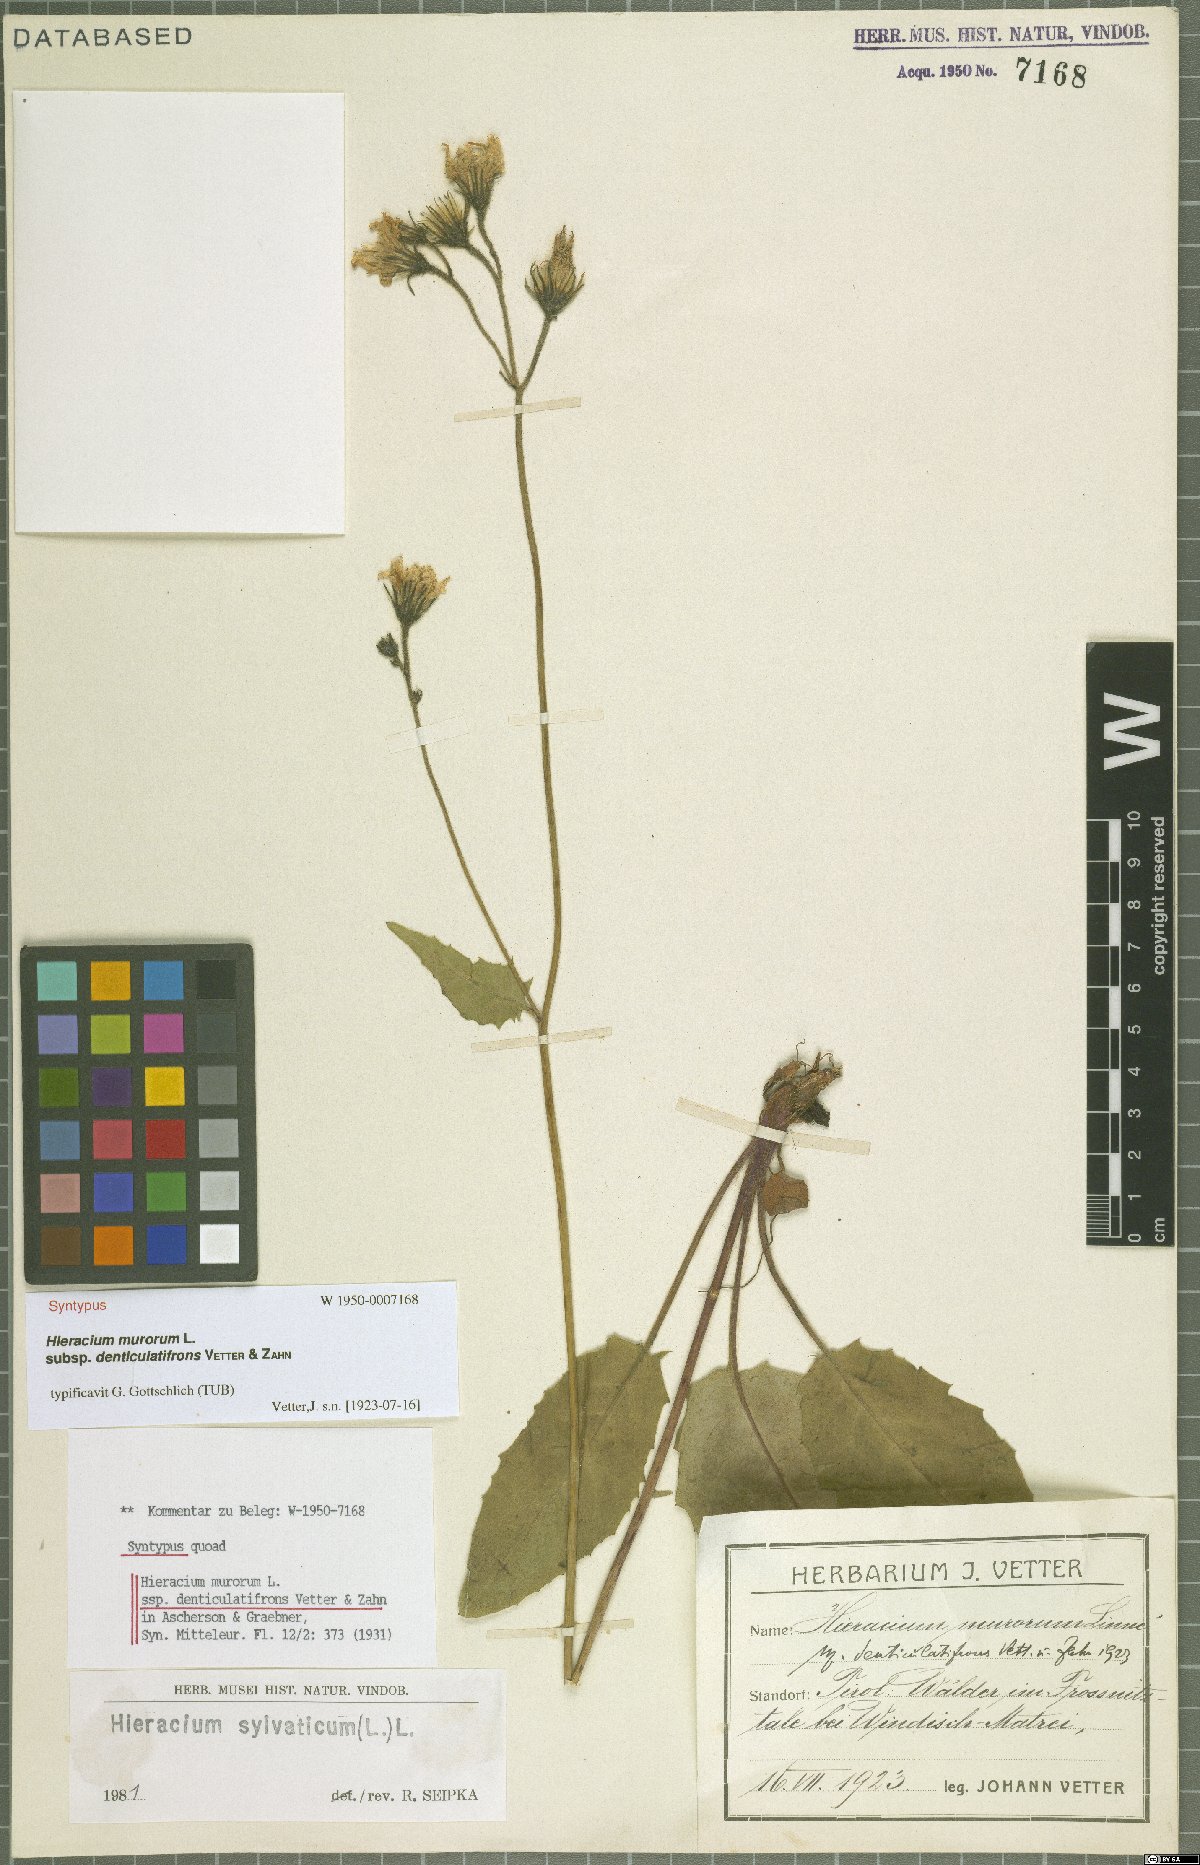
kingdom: Plantae
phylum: Tracheophyta
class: Magnoliopsida
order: Asterales
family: Asteraceae
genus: Hieracium
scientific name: Hieracium murorum
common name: Wall hawkweed
